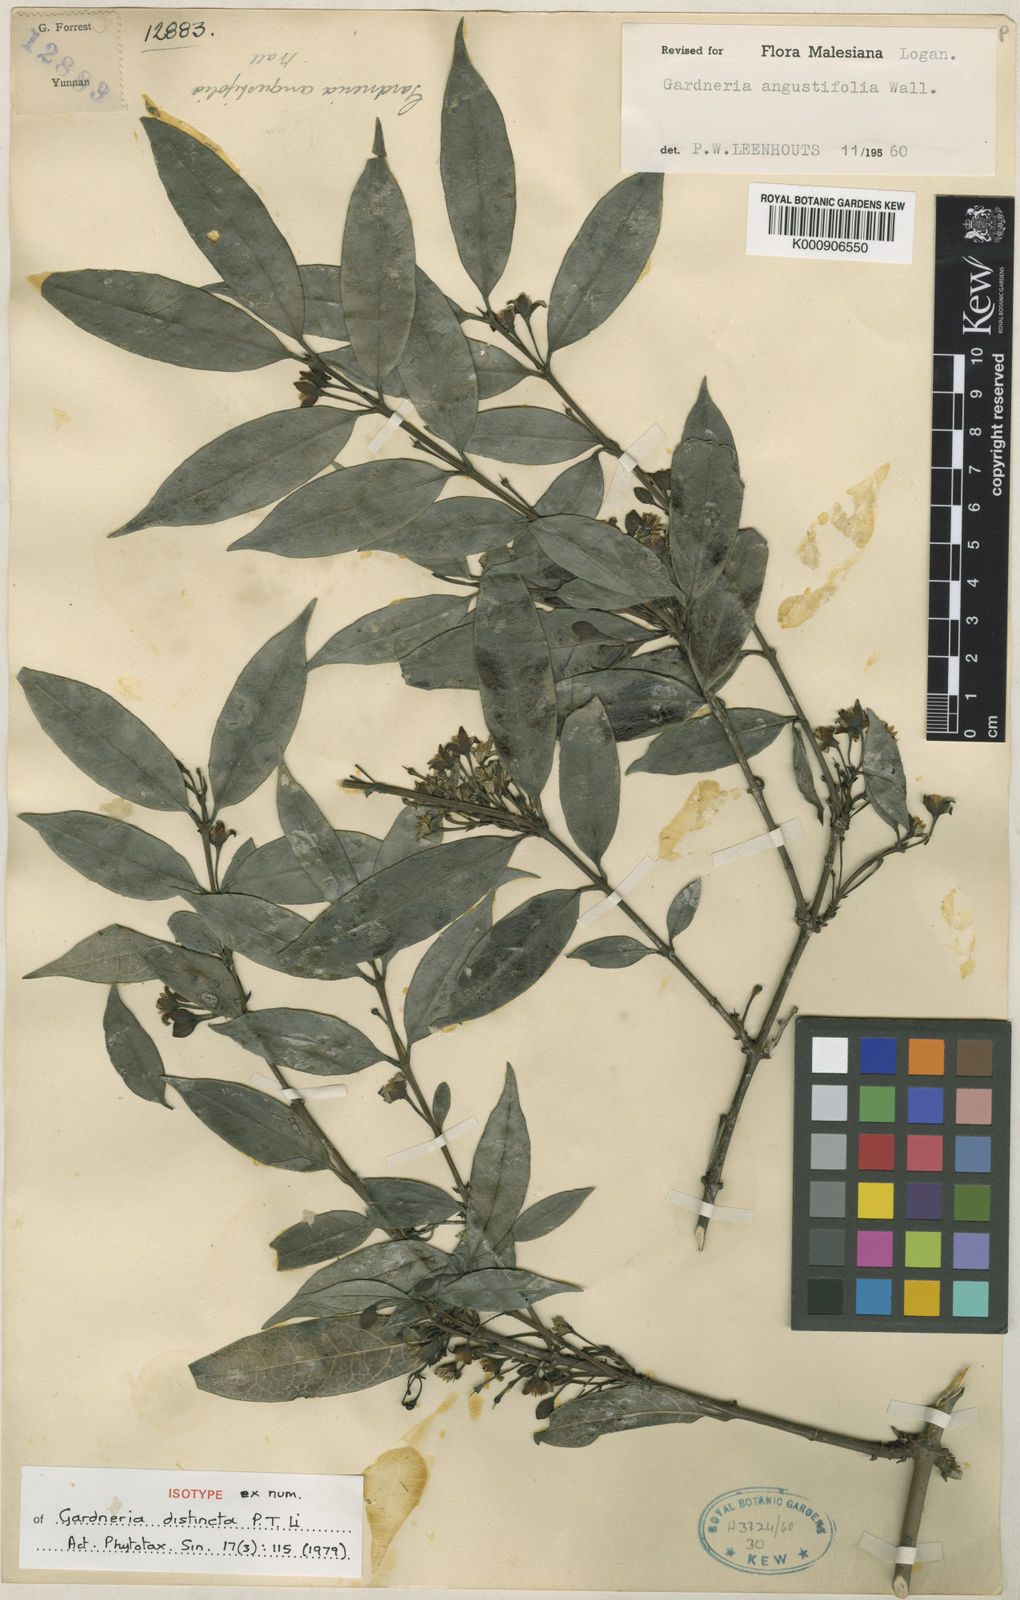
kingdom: Plantae
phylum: Tracheophyta
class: Magnoliopsida
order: Gentianales
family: Loganiaceae
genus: Gardneria
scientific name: Gardneria angustifolia
